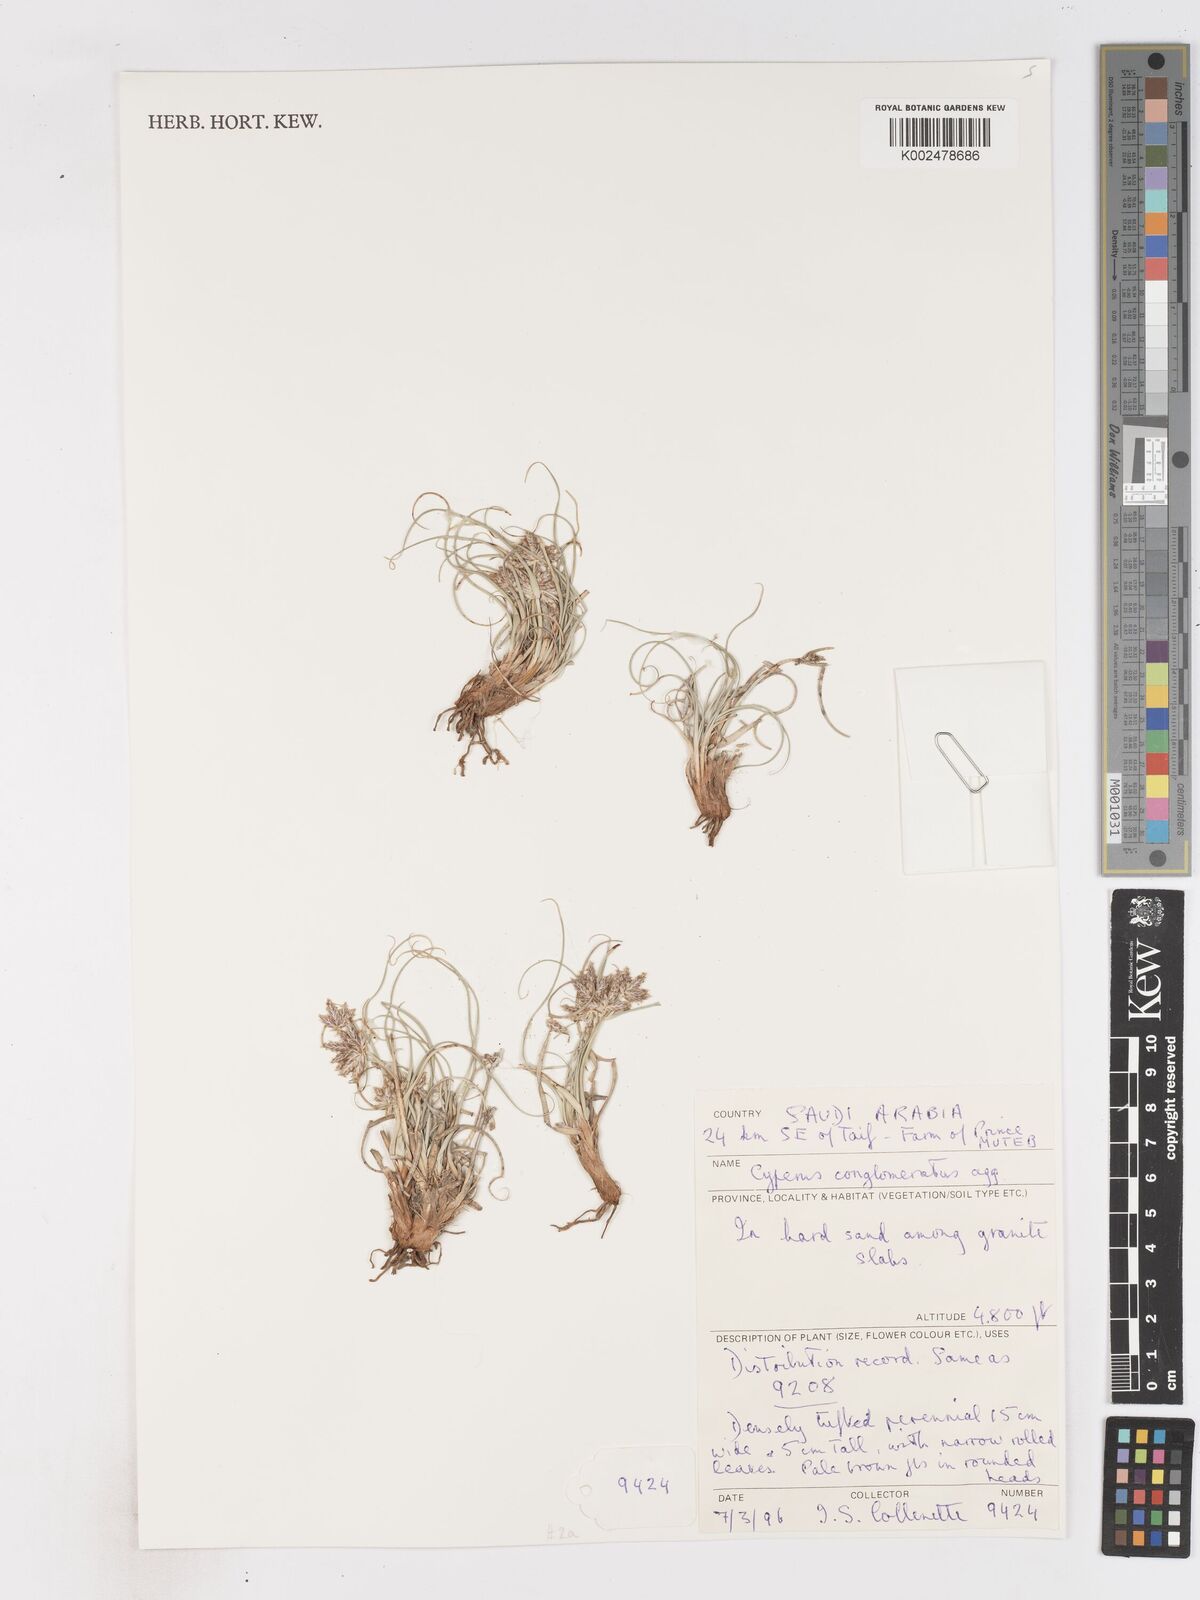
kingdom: Plantae
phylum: Tracheophyta
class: Liliopsida
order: Poales
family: Cyperaceae
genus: Cyperus
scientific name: Cyperus conglomeratus
